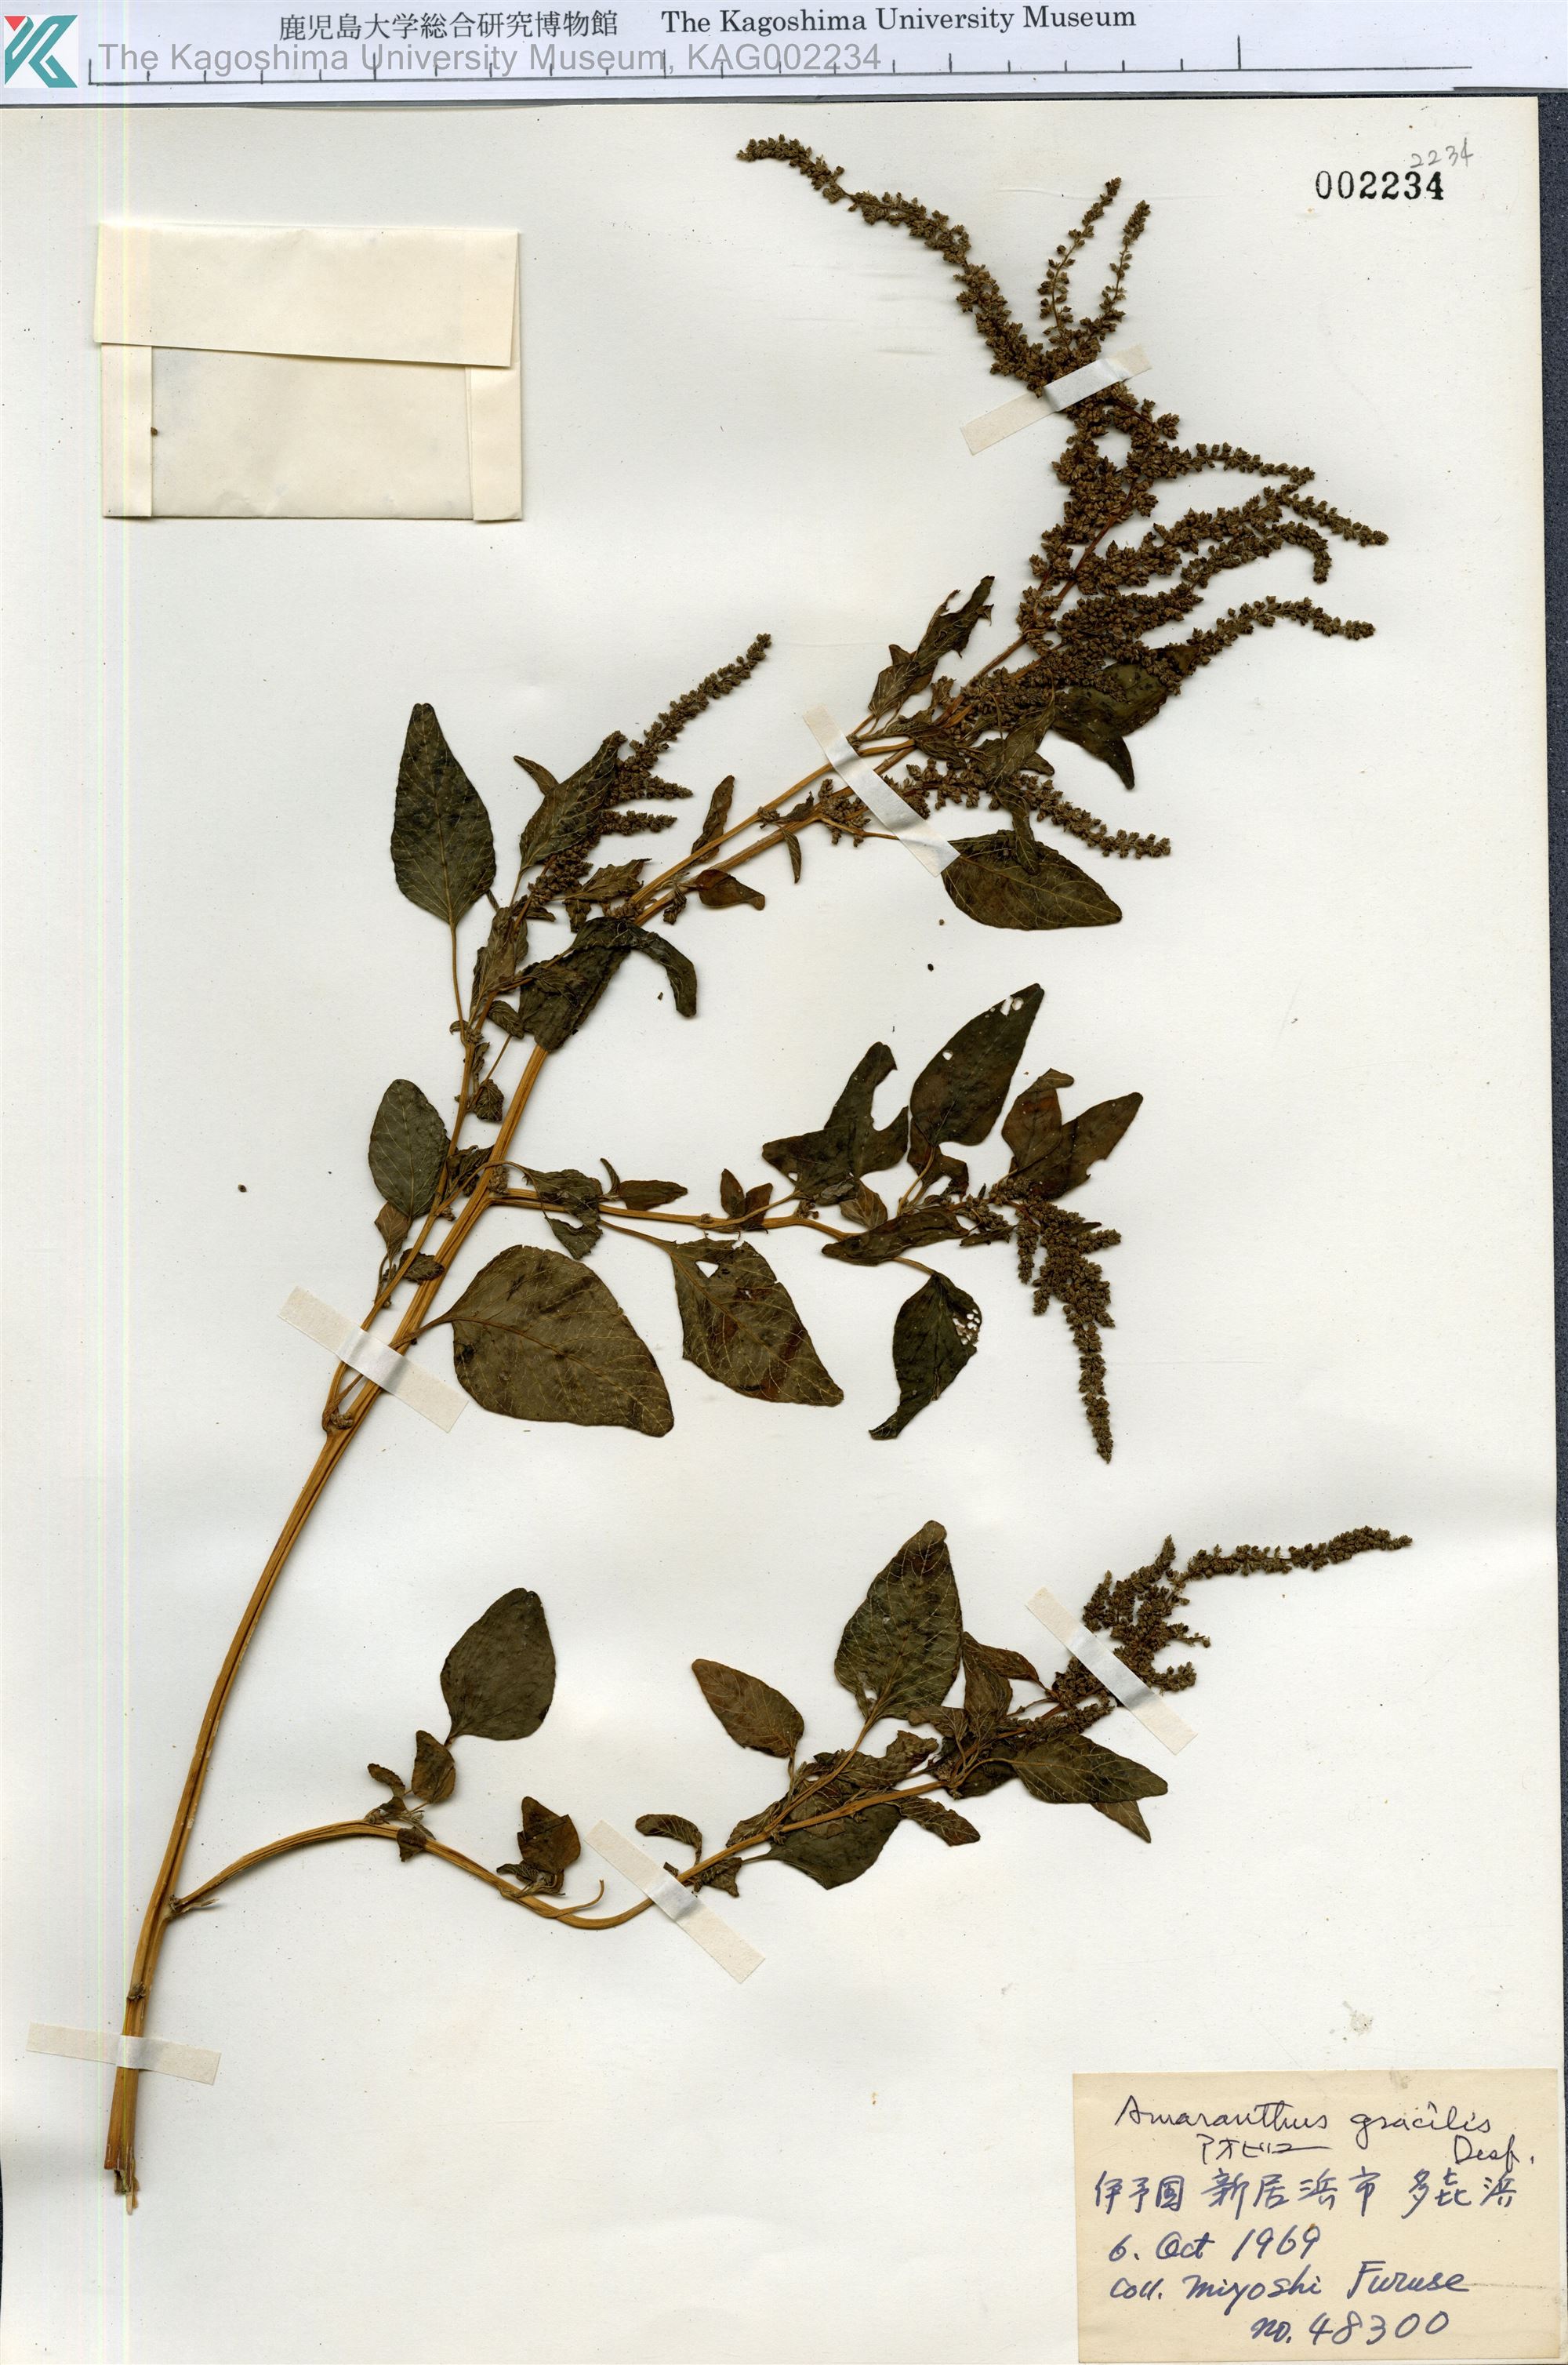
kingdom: Plantae
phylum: Tracheophyta
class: Magnoliopsida
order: Caryophyllales
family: Amaranthaceae
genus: Amaranthus
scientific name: Amaranthus viridis
